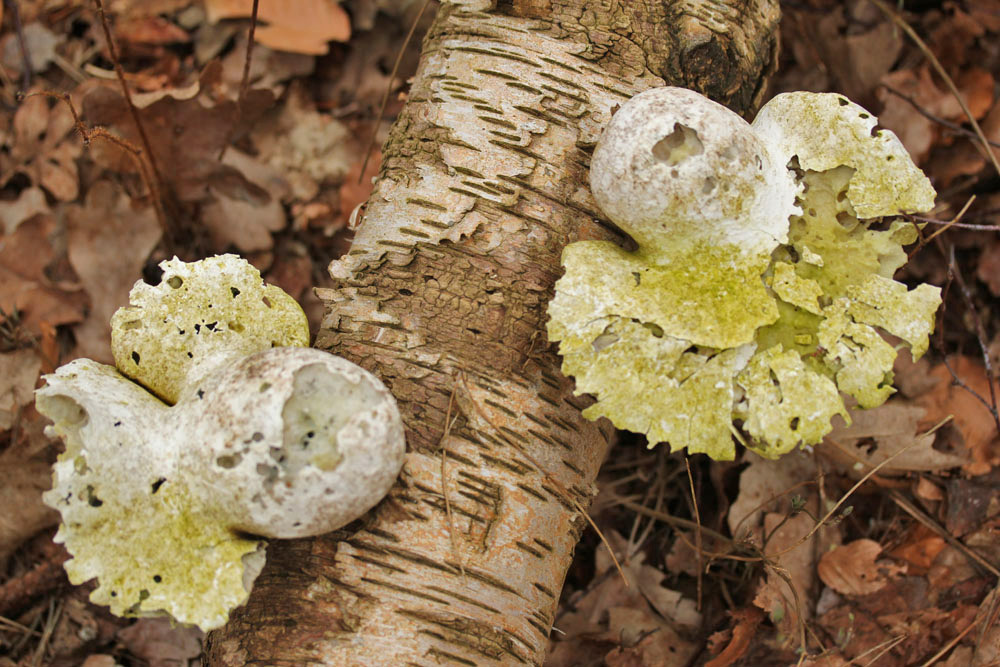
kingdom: Fungi
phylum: Basidiomycota
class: Agaricomycetes
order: Polyporales
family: Fomitopsidaceae
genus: Fomitopsis
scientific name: Fomitopsis betulina
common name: birkeporesvamp
